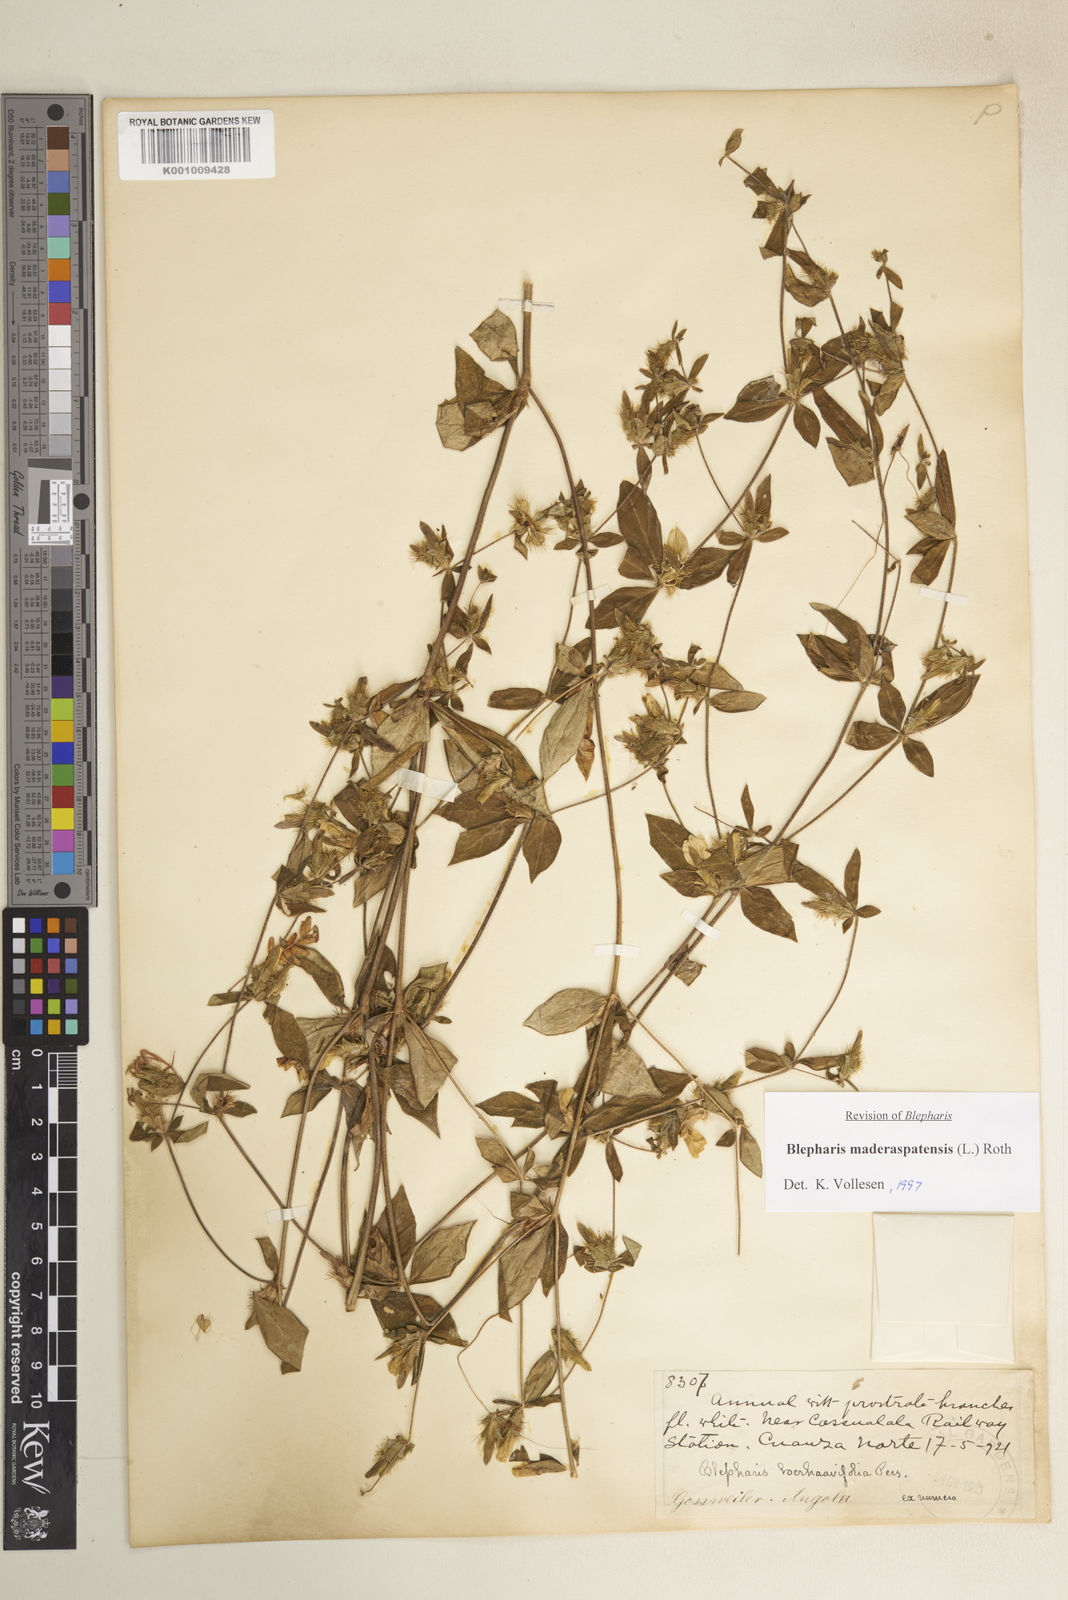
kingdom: Plantae
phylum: Tracheophyta
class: Magnoliopsida
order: Lamiales
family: Acanthaceae
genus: Blepharis
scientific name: Blepharis maderaspatensis
